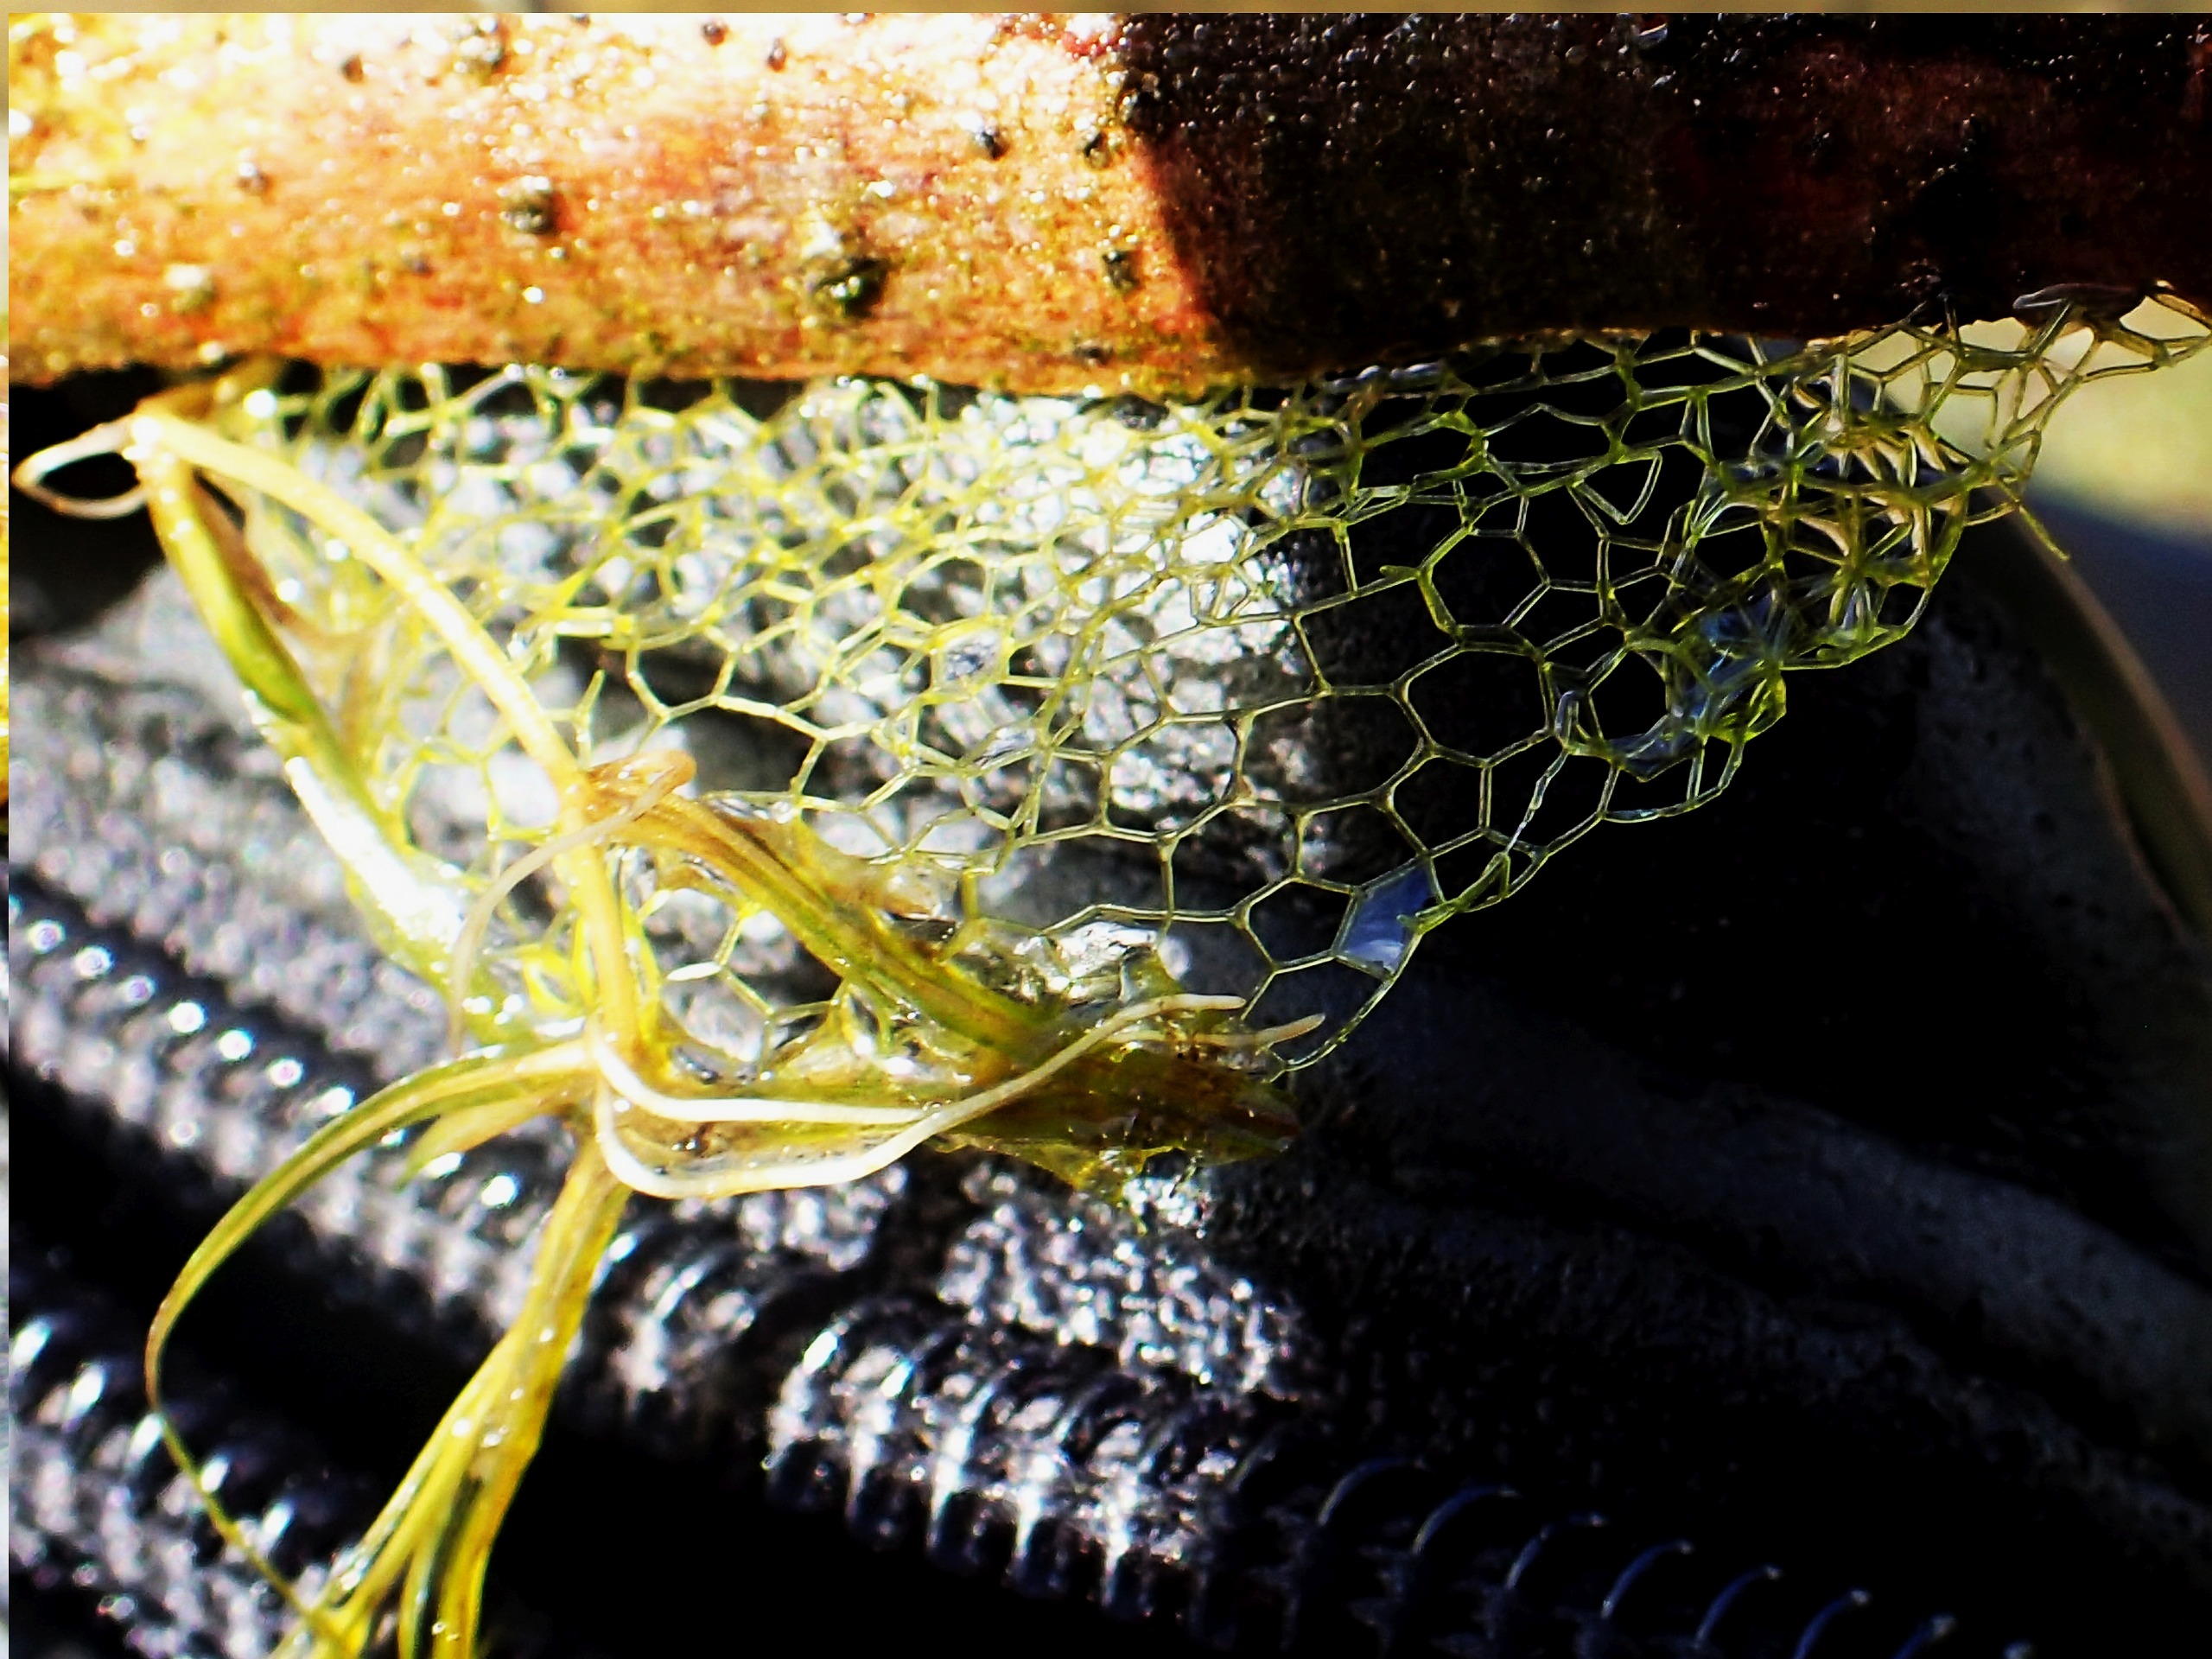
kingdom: Plantae
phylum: Chlorophyta
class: Chlorophyceae
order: Sphaeropleales
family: Hydrodictyaceae
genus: Hydrodictyon
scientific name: Hydrodictyon reticulatum
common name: Vandnet
